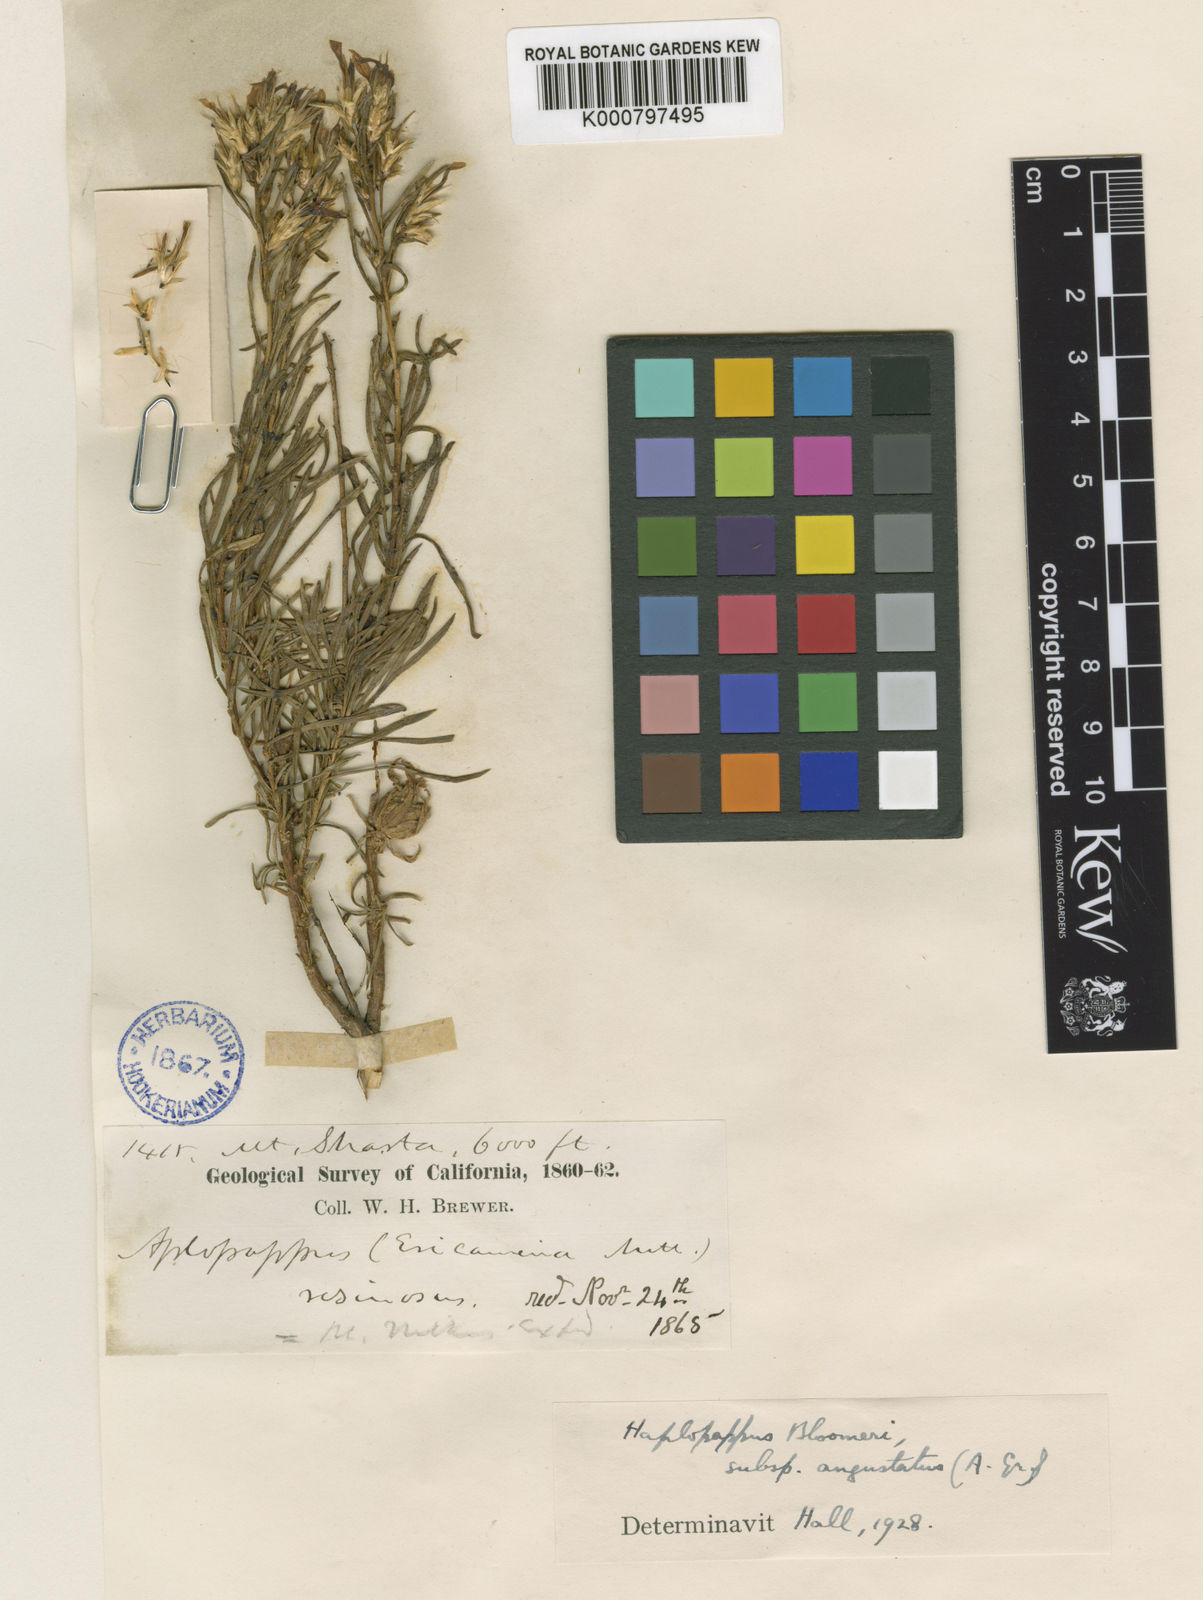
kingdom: Plantae
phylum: Tracheophyta
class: Magnoliopsida
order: Asterales
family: Asteraceae
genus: Ericameria
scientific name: Ericameria bloomeri
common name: Bloomer's goldenbush
